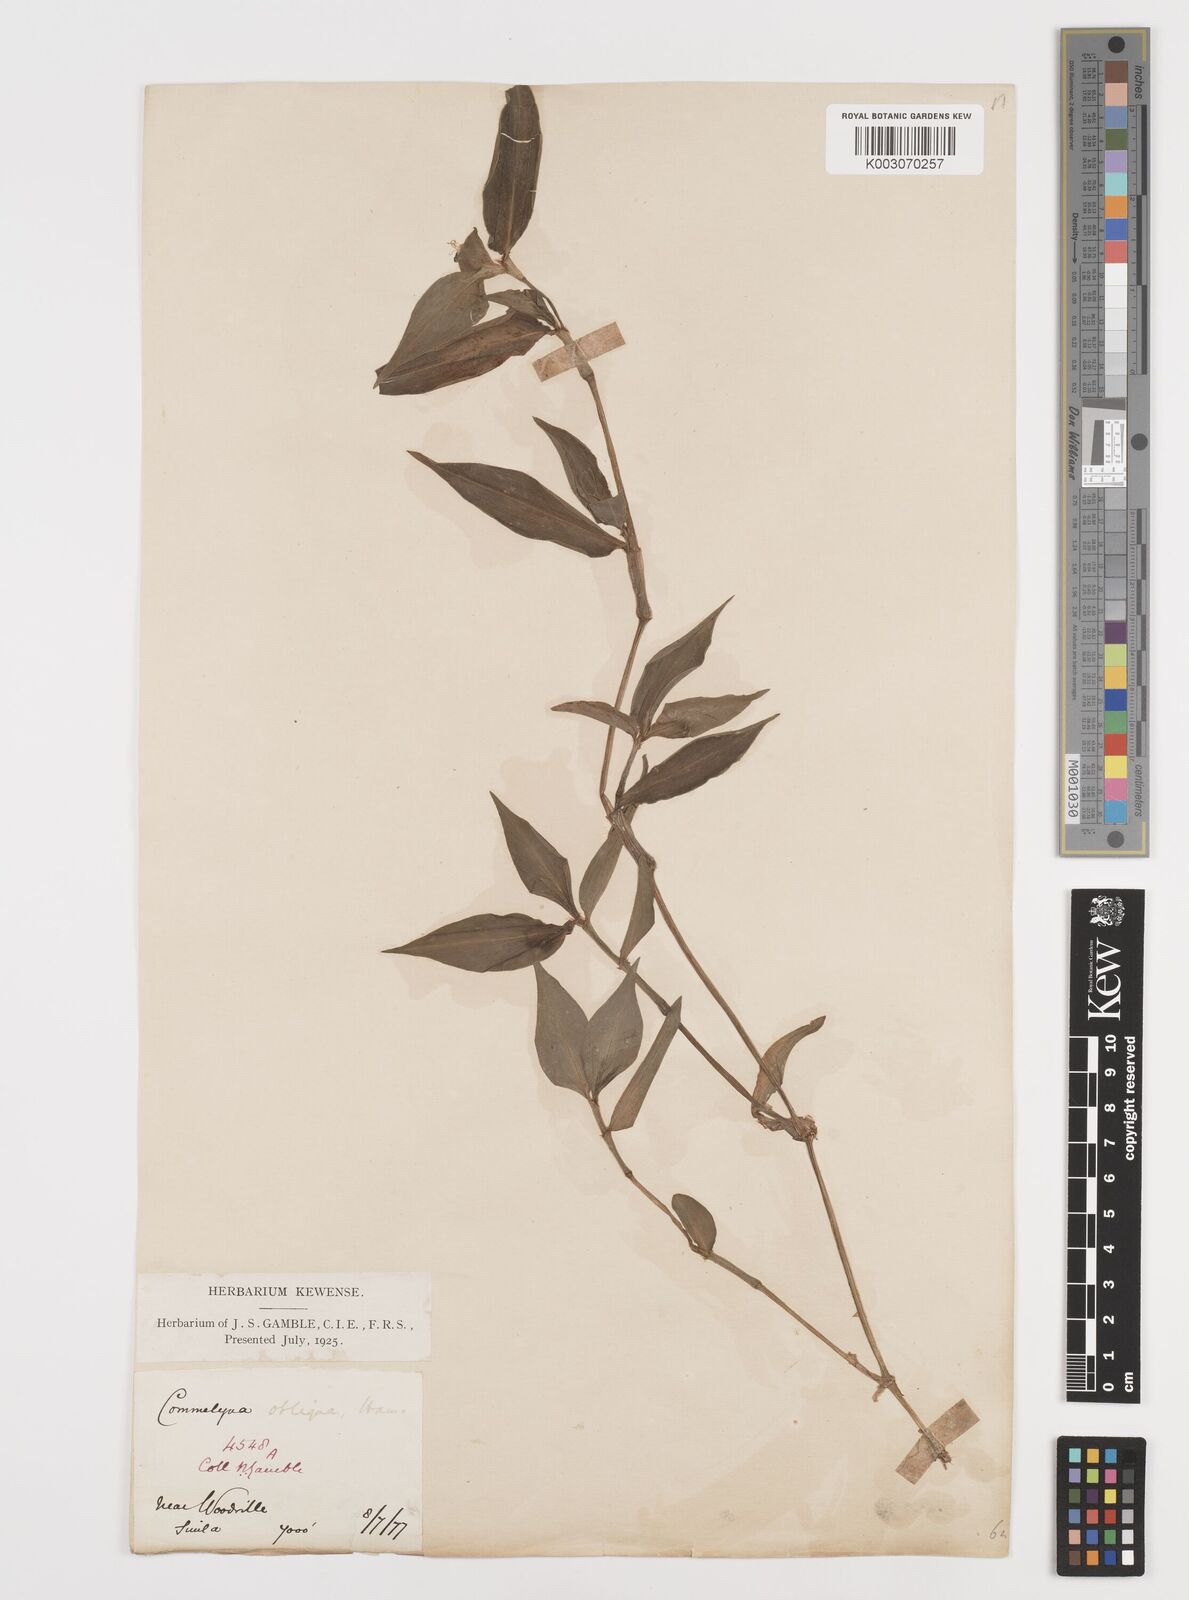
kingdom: Plantae
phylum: Tracheophyta
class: Liliopsida
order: Commelinales
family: Commelinaceae
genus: Commelina
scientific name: Commelina paludosa
